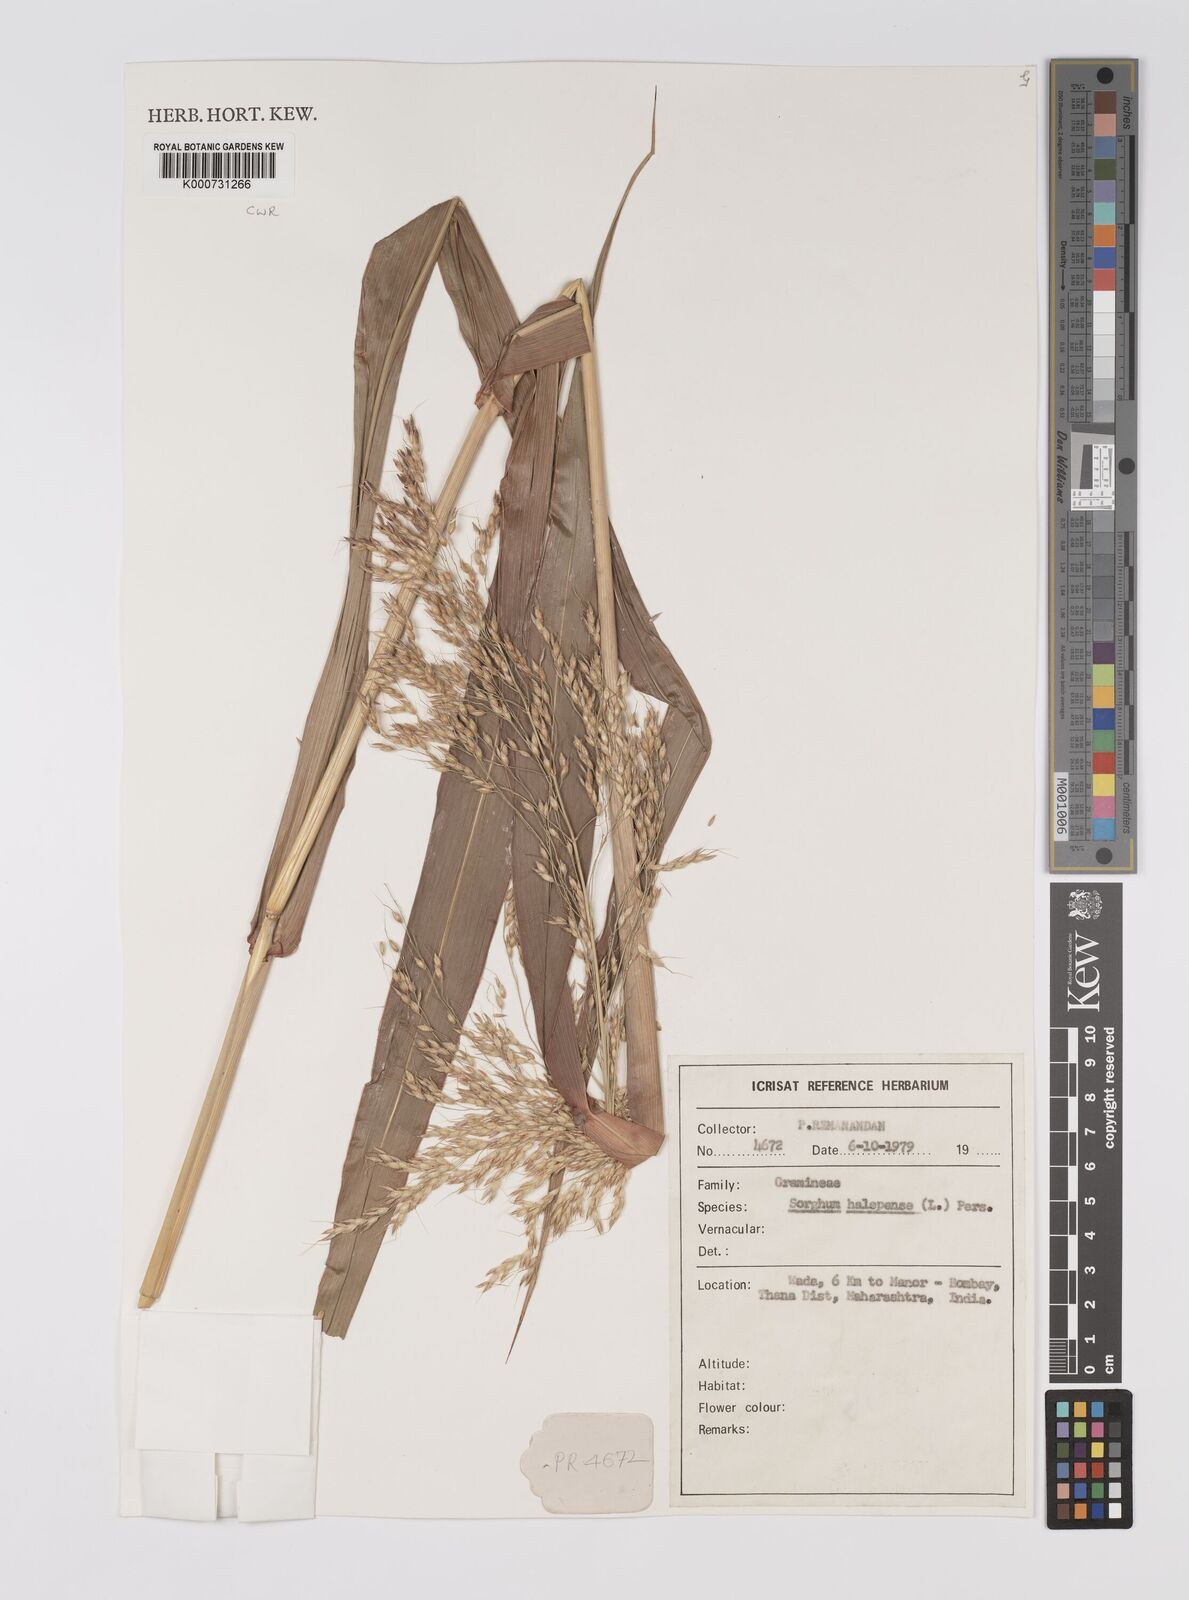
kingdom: Plantae
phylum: Tracheophyta
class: Liliopsida
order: Poales
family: Poaceae
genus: Sorghum
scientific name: Sorghum halepense
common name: Johnson-grass
